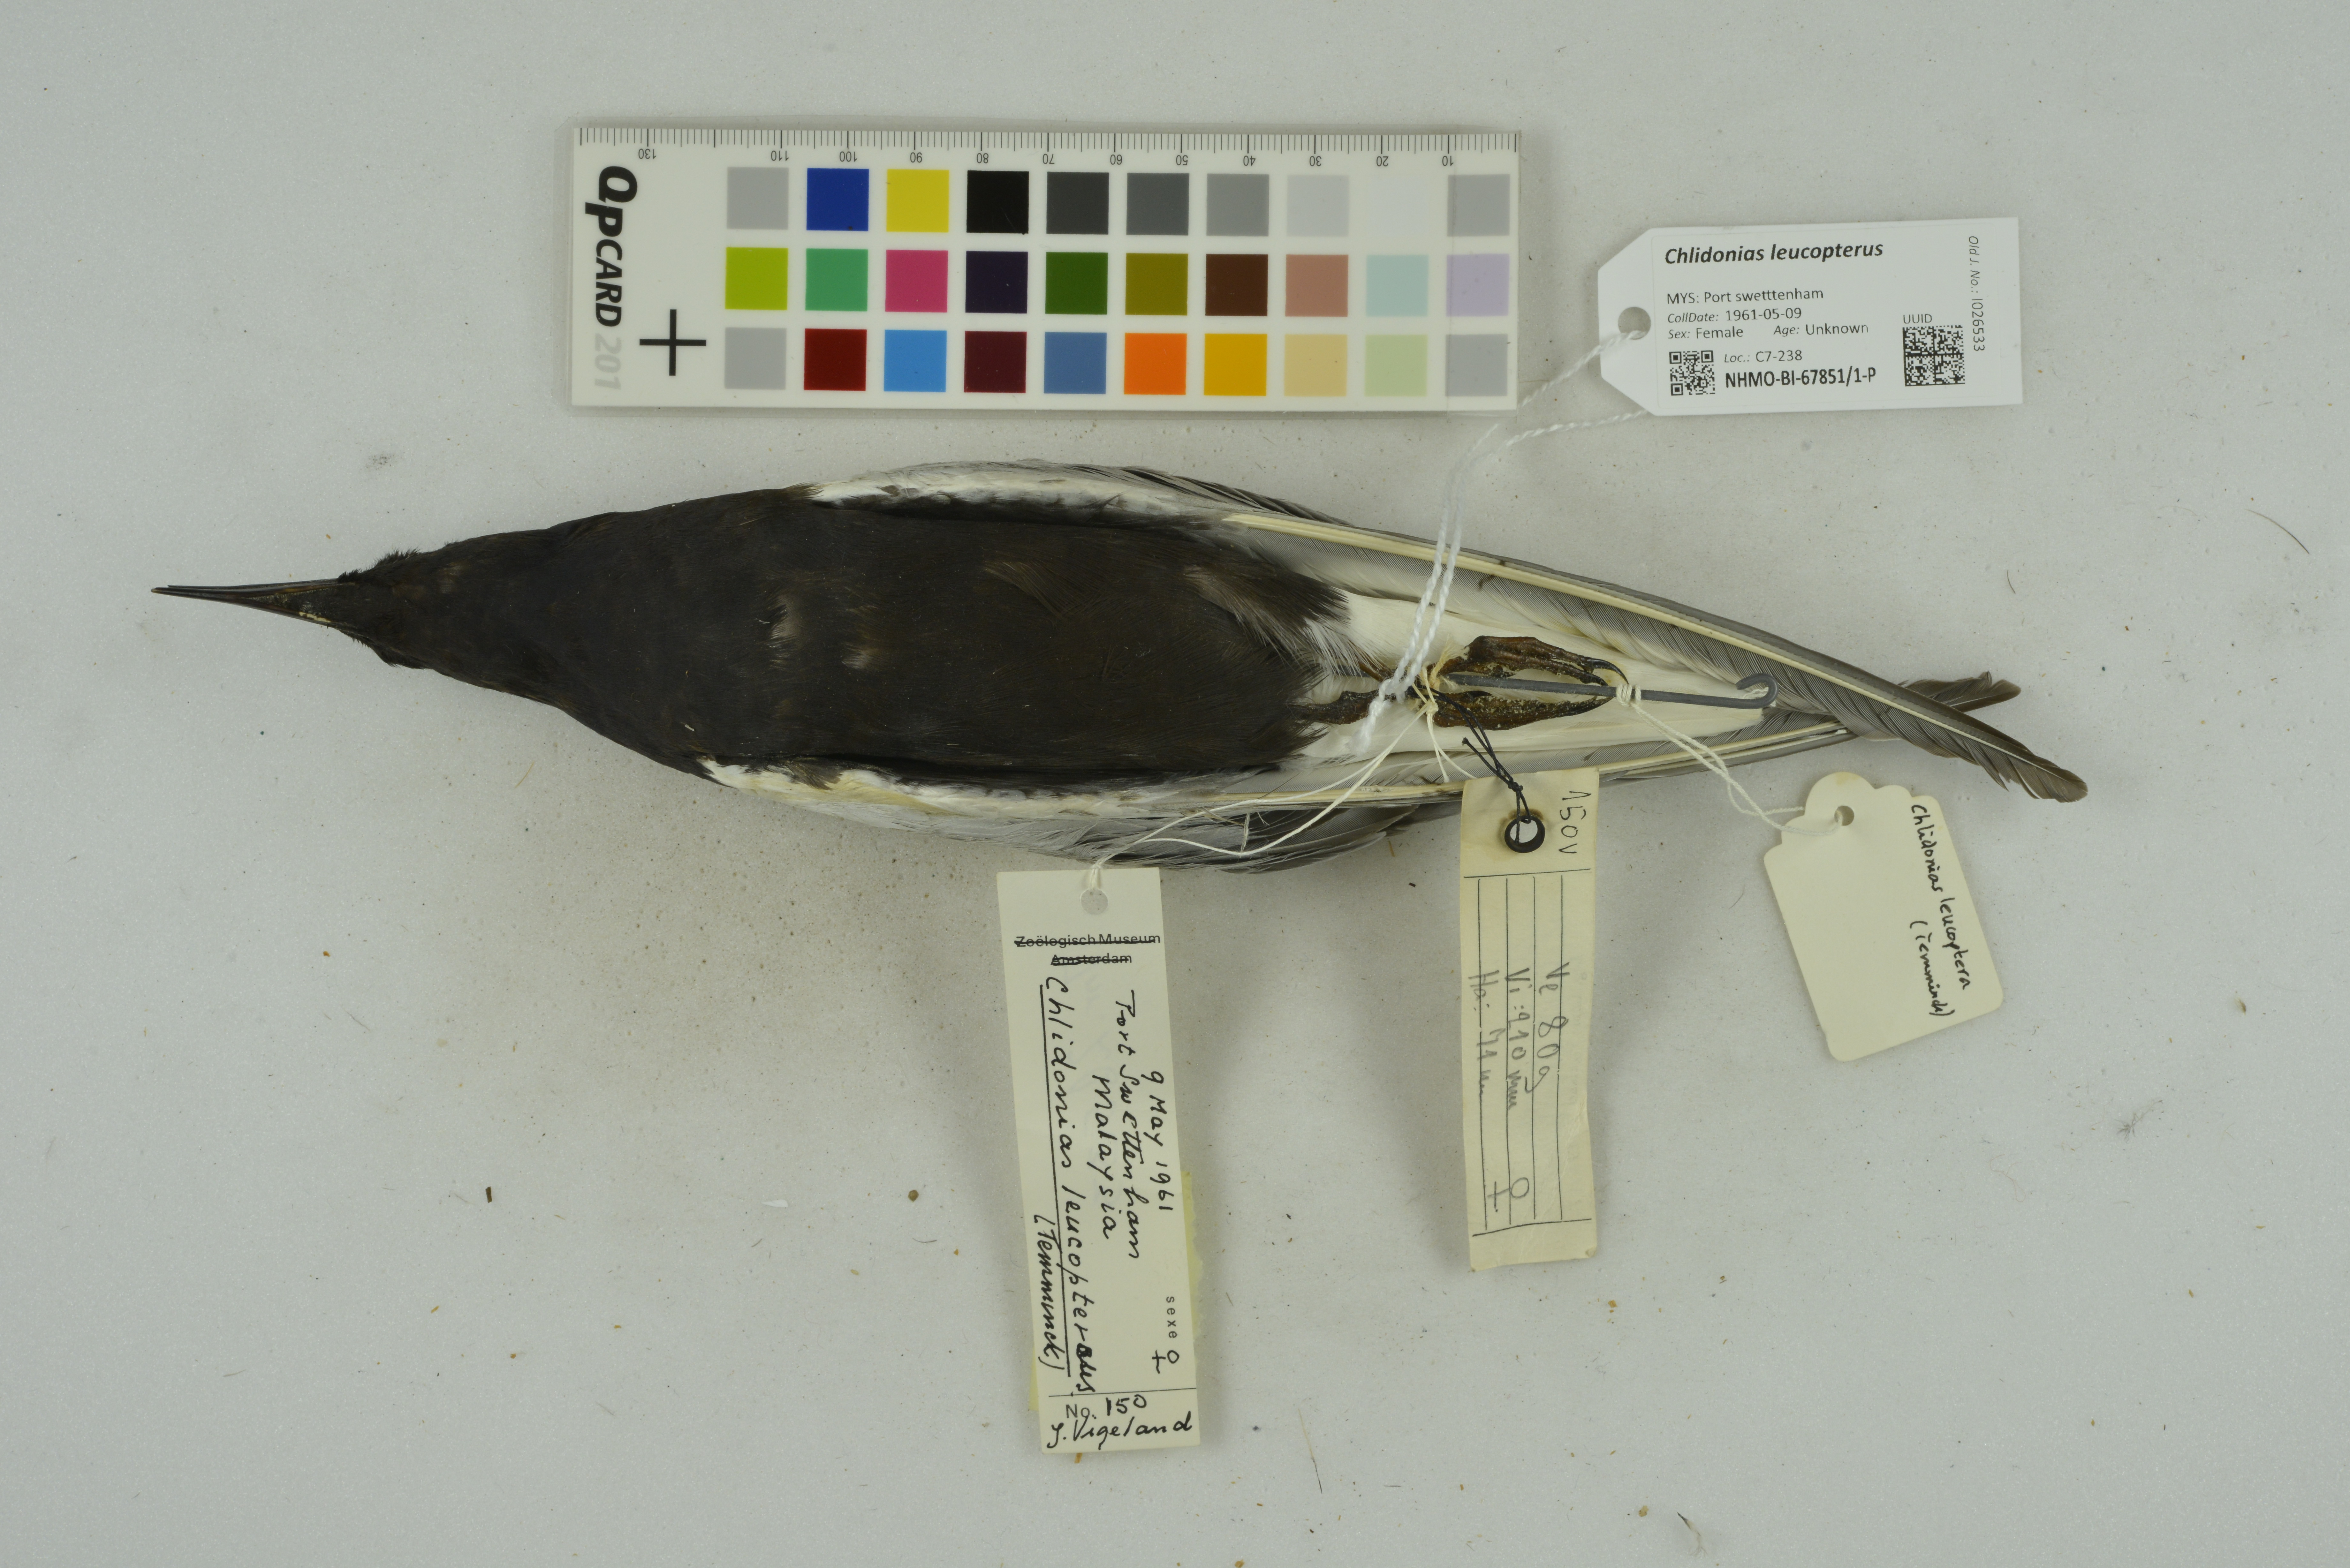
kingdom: Animalia
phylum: Chordata
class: Aves
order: Charadriiformes
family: Laridae
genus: Chlidonias
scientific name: Chlidonias leucopterus
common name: White-winged tern
